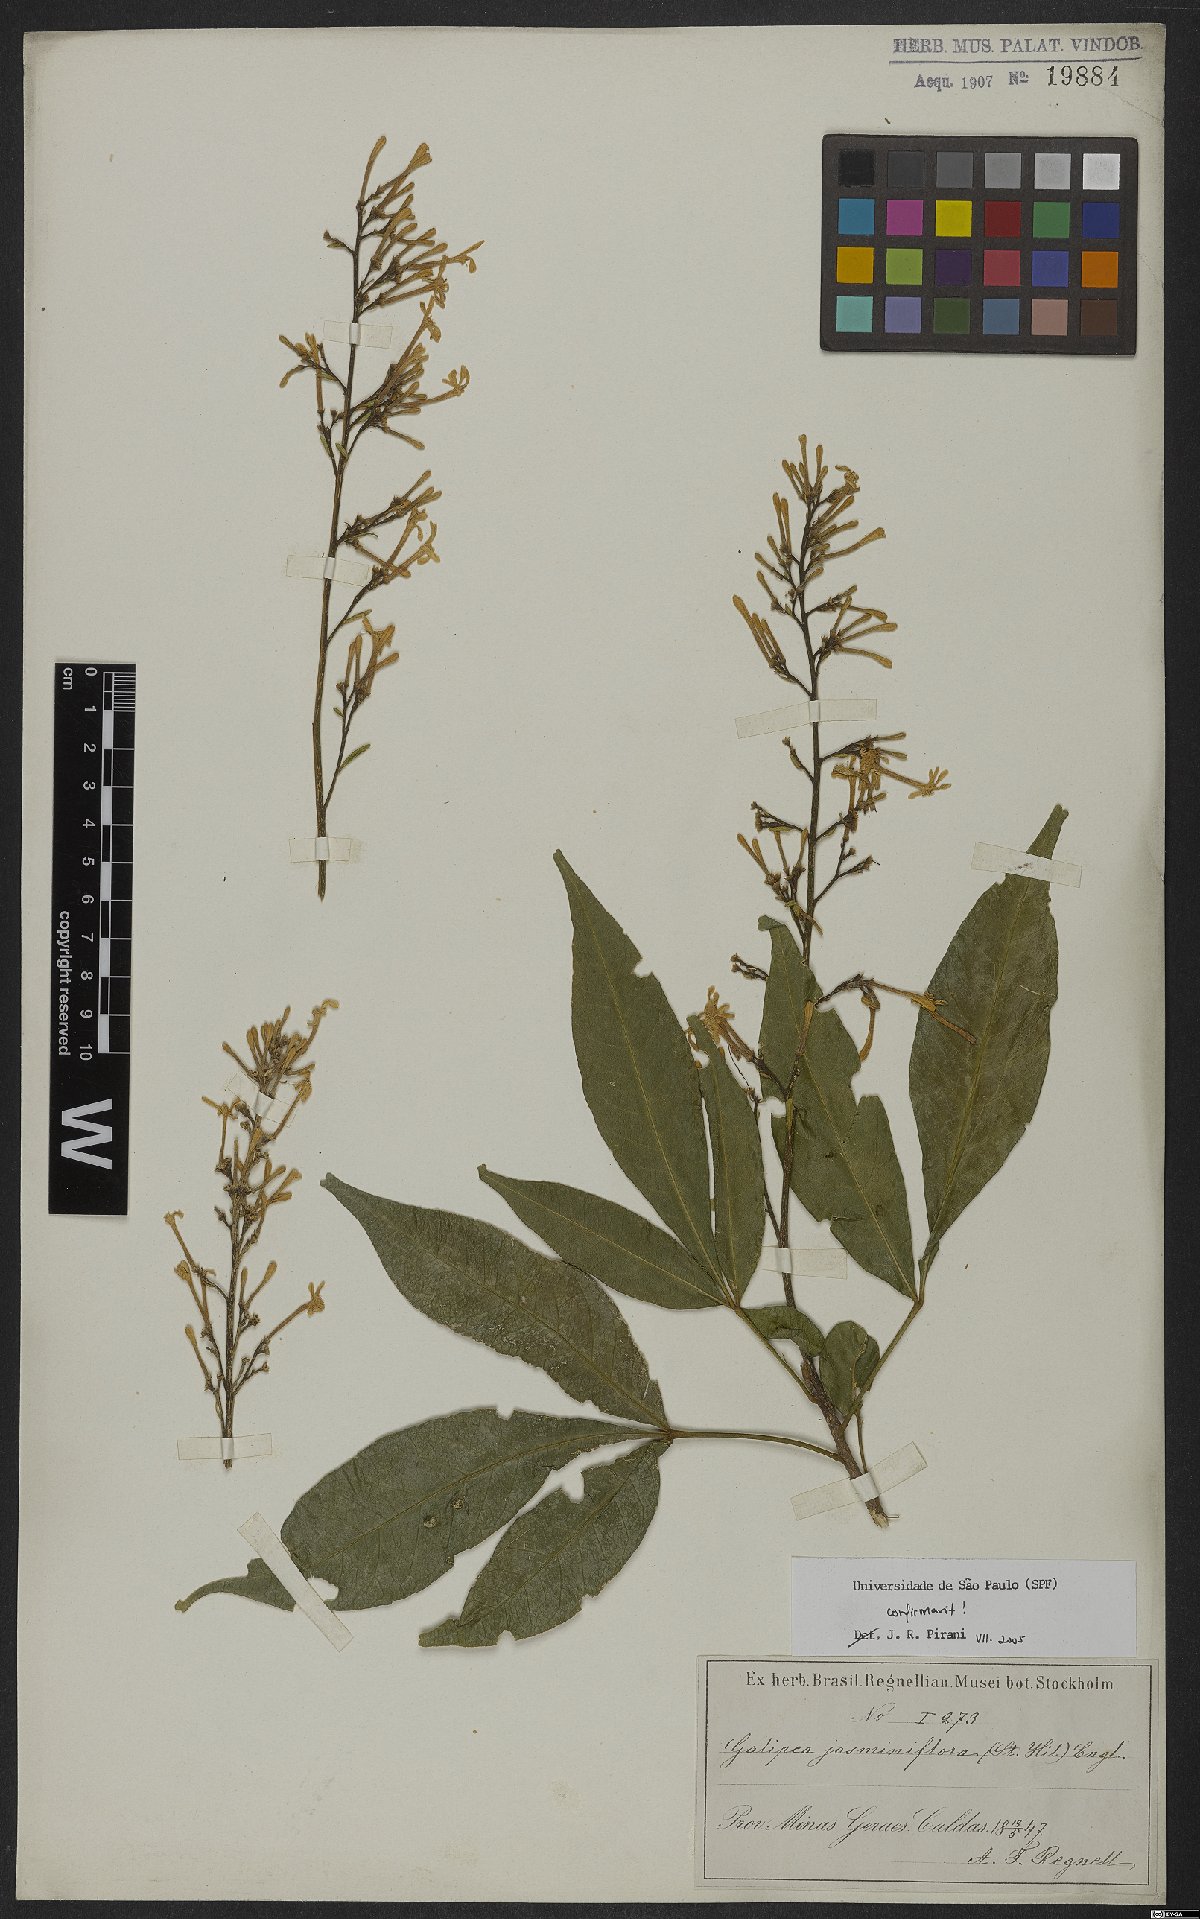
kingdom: Plantae
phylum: Tracheophyta
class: Magnoliopsida
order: Sapindales
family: Rutaceae
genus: Galipea
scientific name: Galipea jasminiflora
